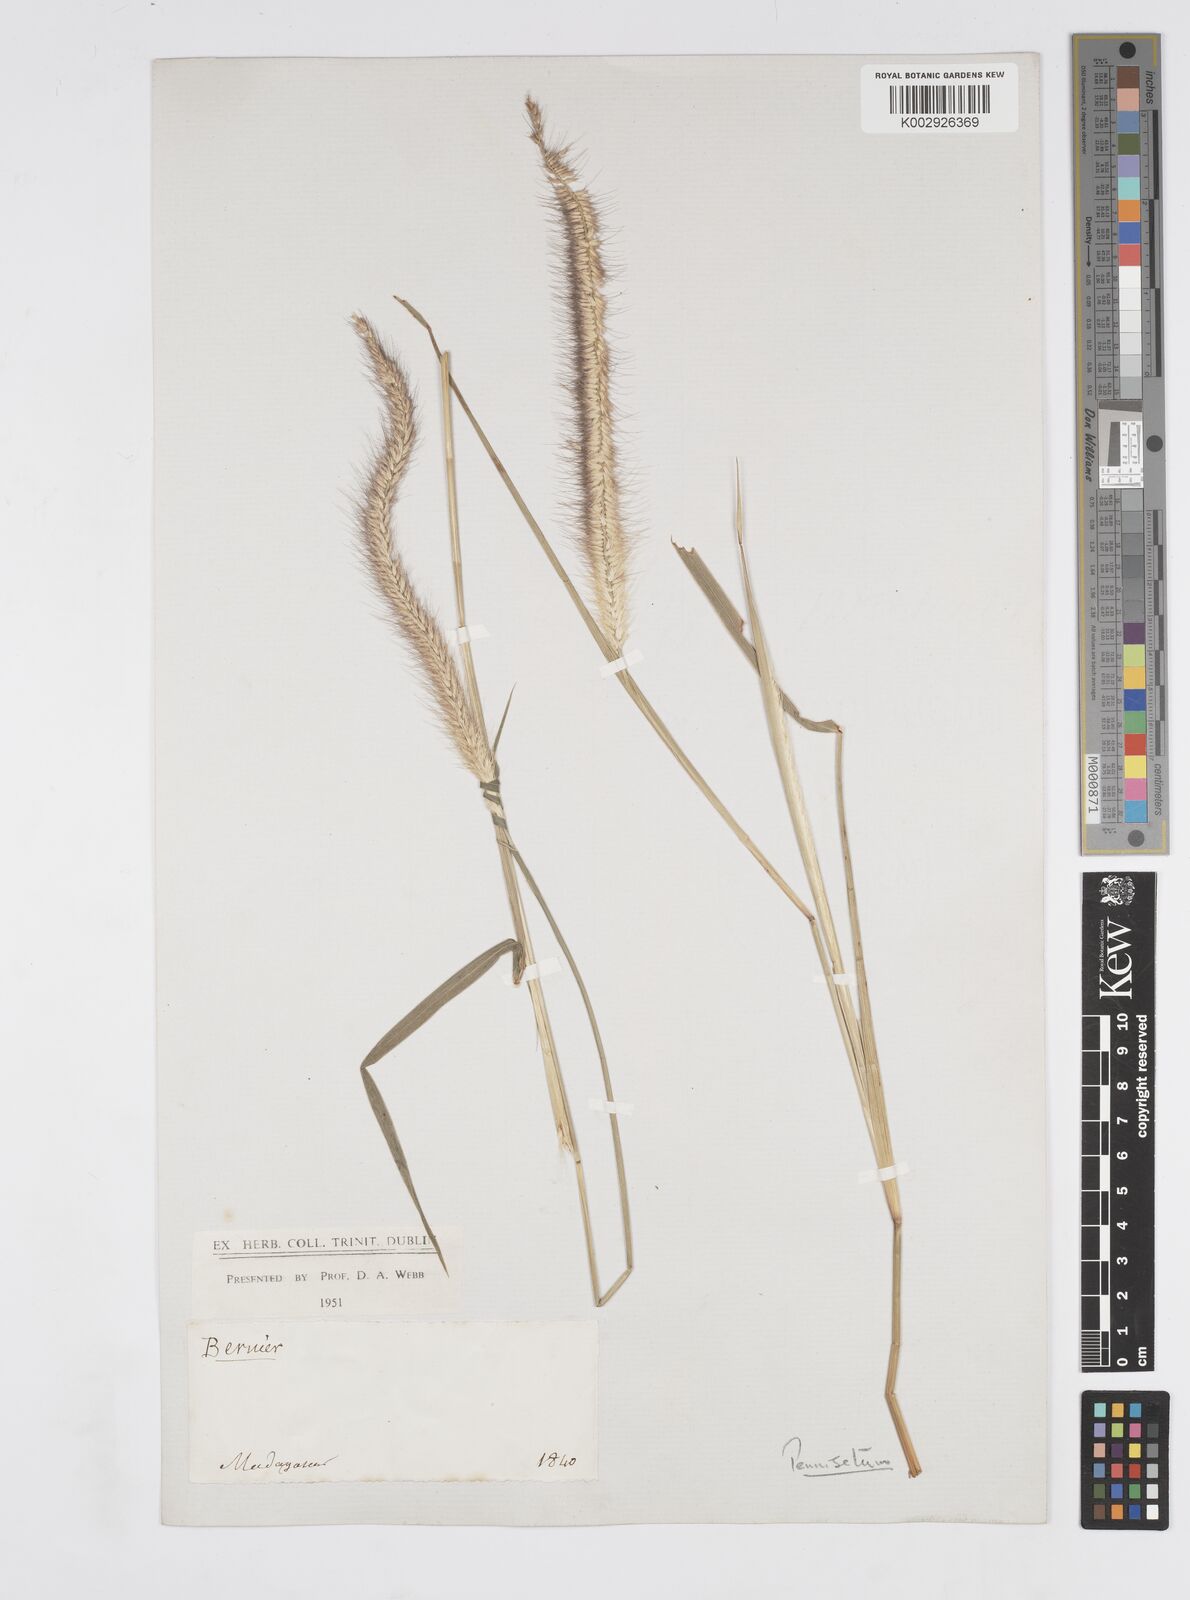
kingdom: Plantae
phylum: Tracheophyta
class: Liliopsida
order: Poales
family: Poaceae
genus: Setaria
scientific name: Setaria parviflora
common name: Knotroot bristle-grass
